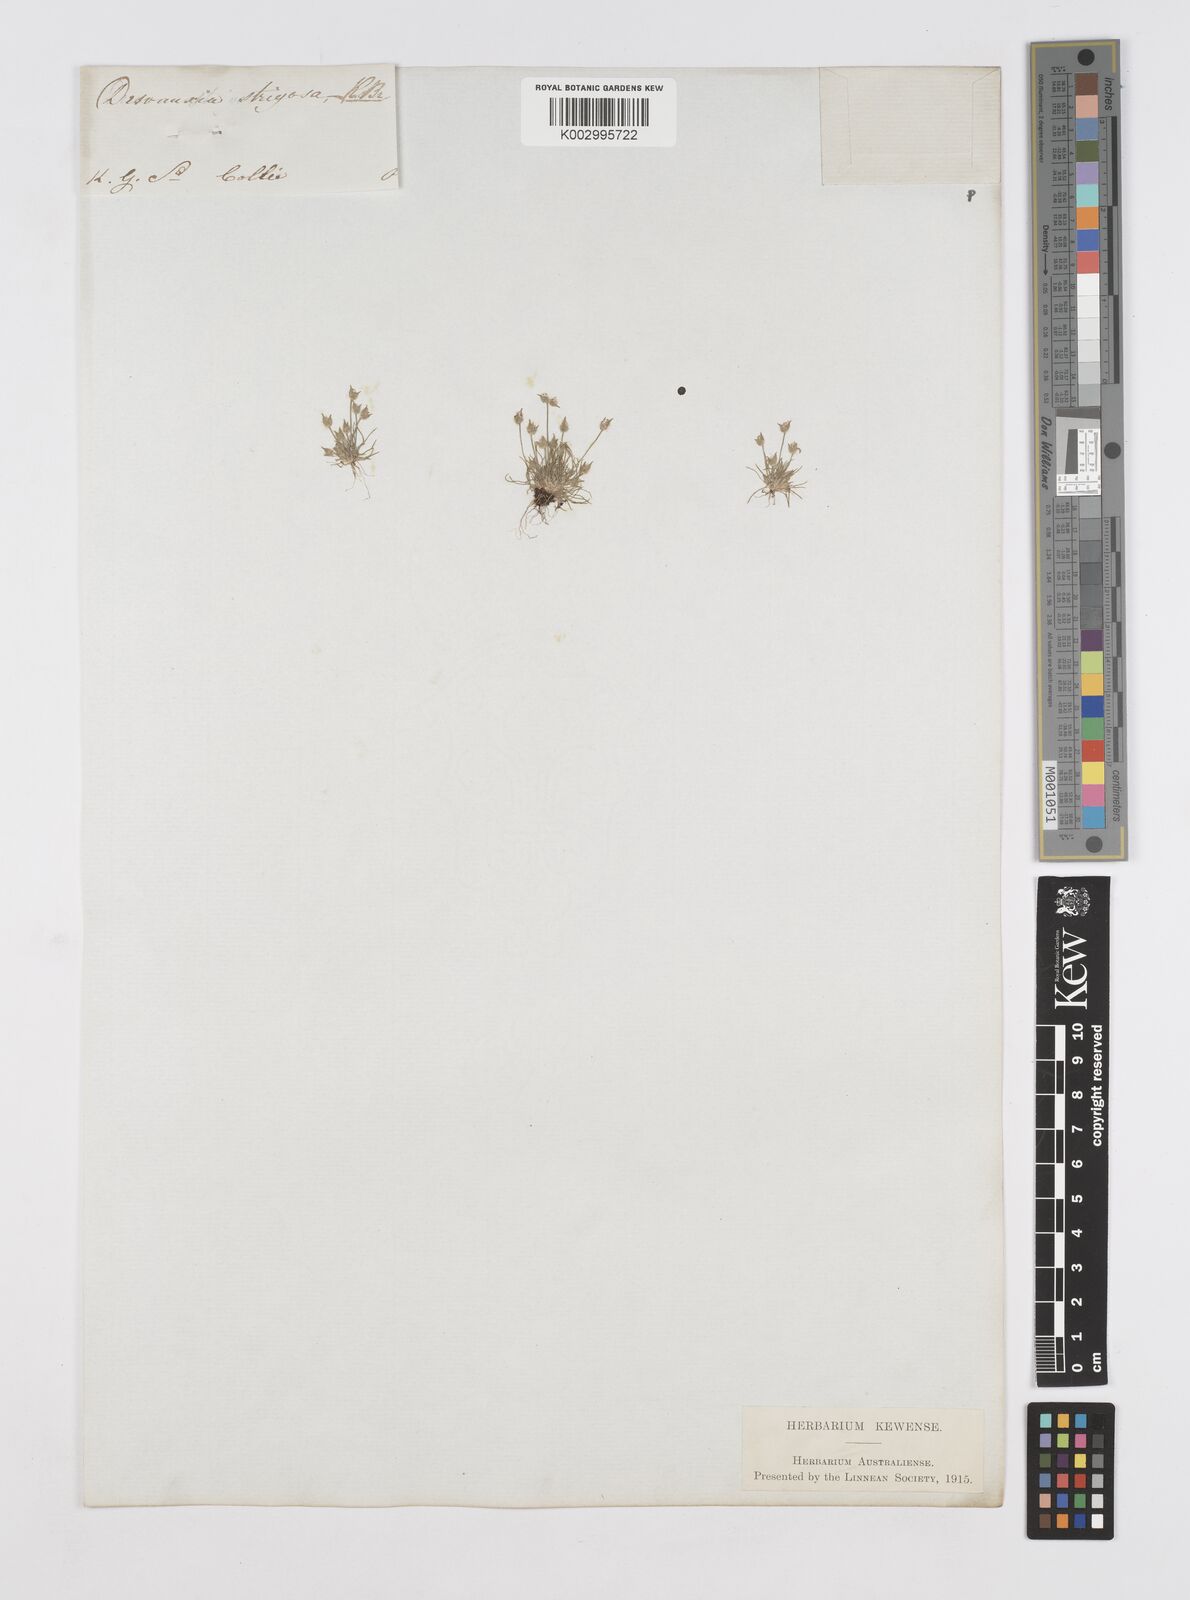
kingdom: Plantae
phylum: Tracheophyta
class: Liliopsida
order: Poales
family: Restionaceae
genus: Centrolepis
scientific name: Centrolepis strigosa
